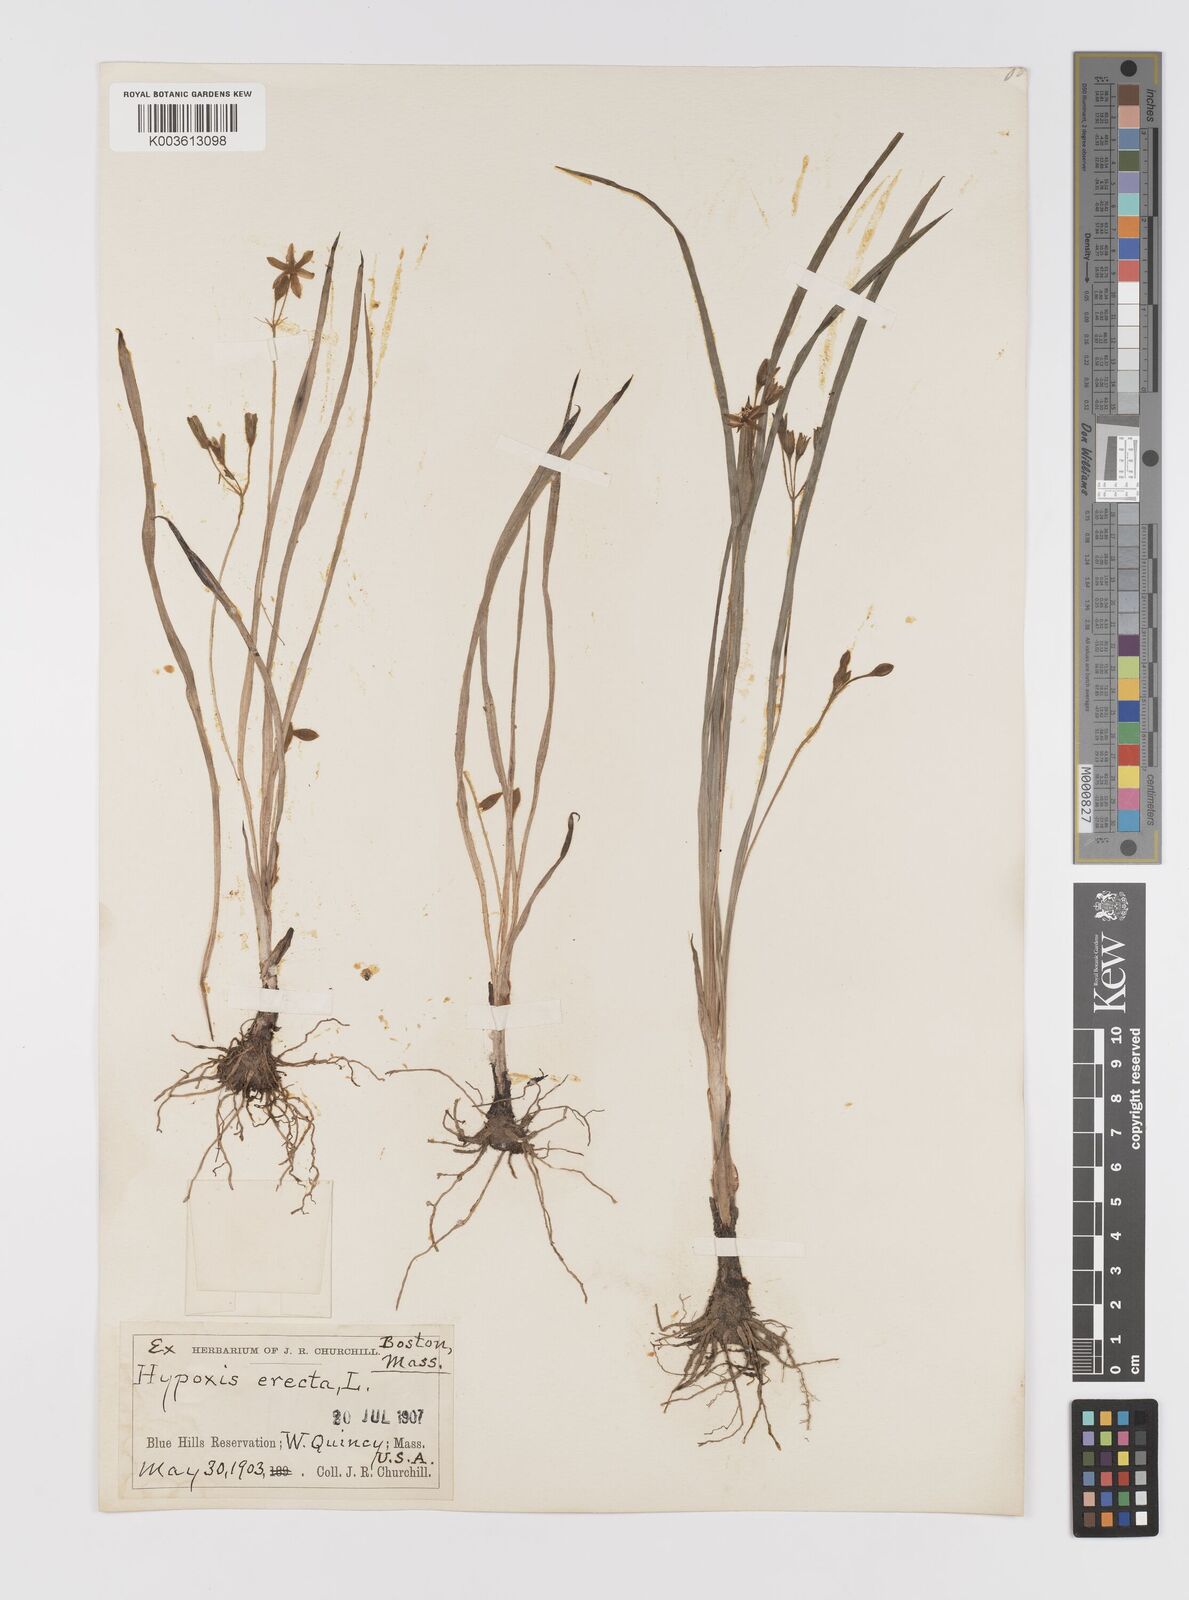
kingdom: Plantae
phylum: Tracheophyta
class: Liliopsida
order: Asparagales
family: Hypoxidaceae
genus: Hypoxis
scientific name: Hypoxis hirsuta
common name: Common goldstar
